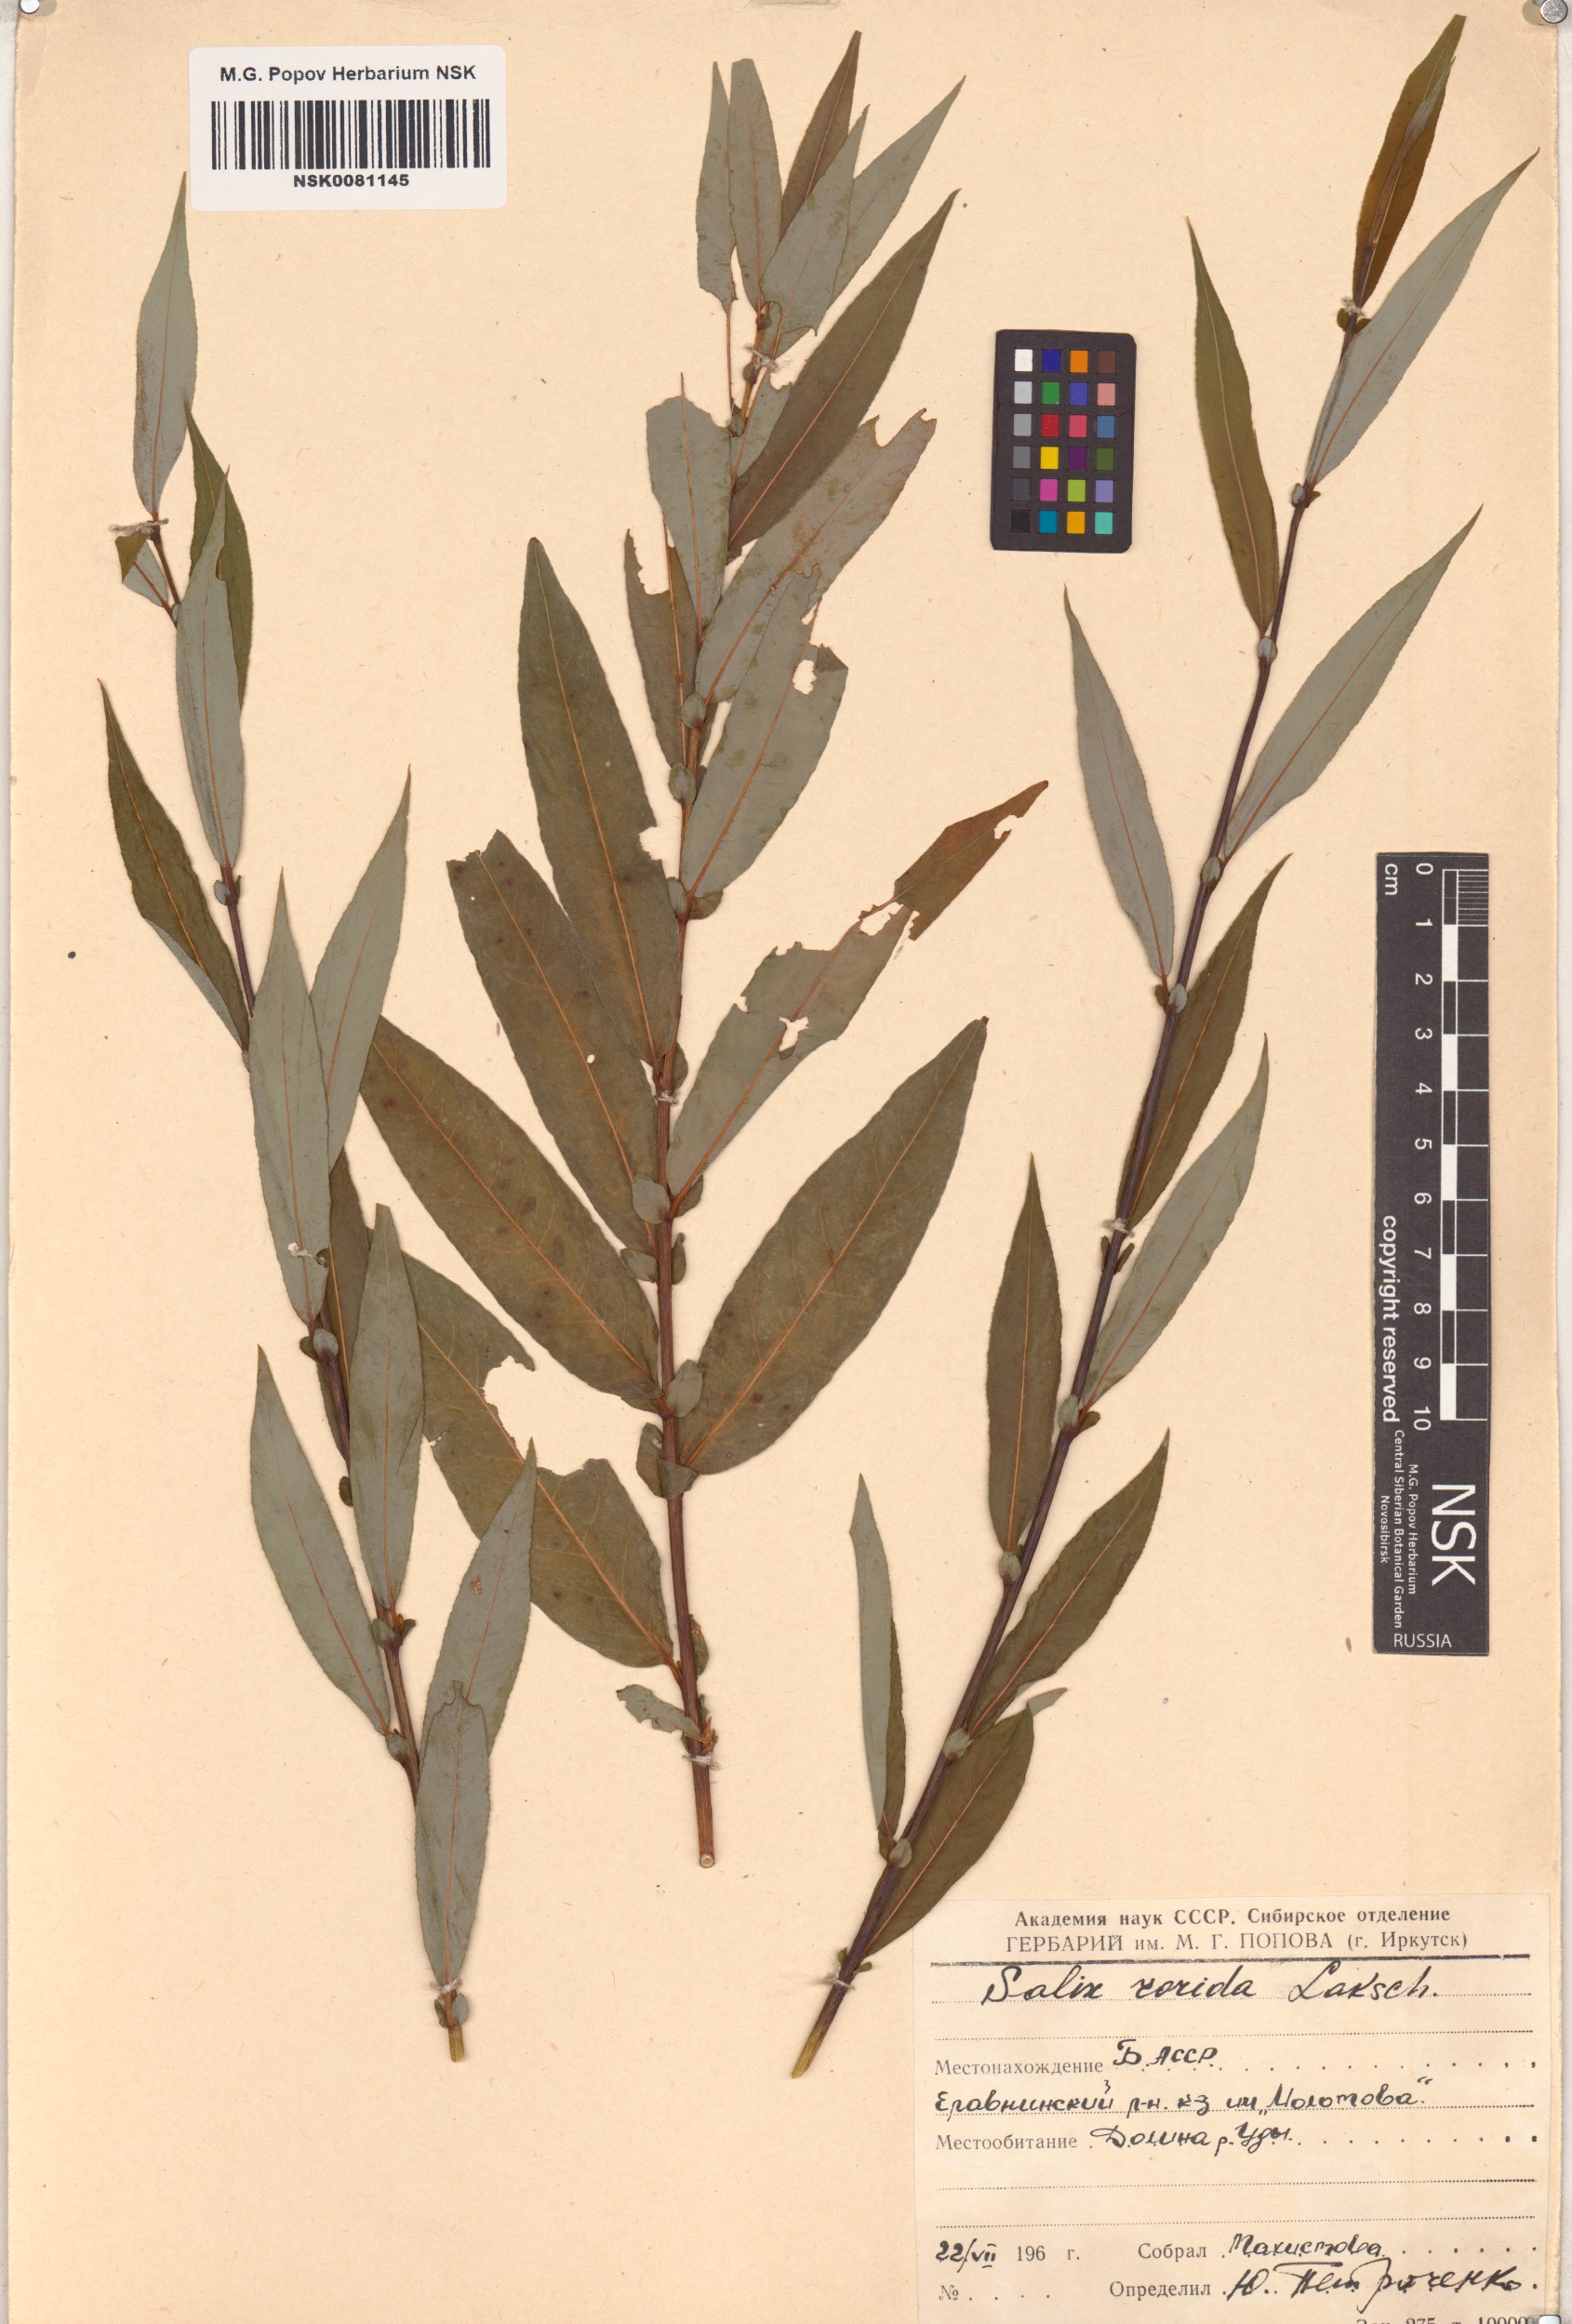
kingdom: Plantae
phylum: Tracheophyta
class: Magnoliopsida
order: Malpighiales
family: Salicaceae
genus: Salix
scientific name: Salix rorida
